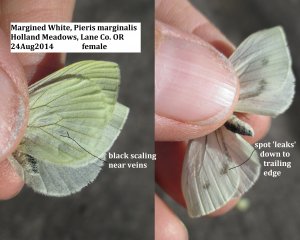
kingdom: Animalia
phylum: Arthropoda
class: Insecta
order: Lepidoptera
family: Pieridae
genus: Pieris
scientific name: Pieris marginalis
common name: Margined White
